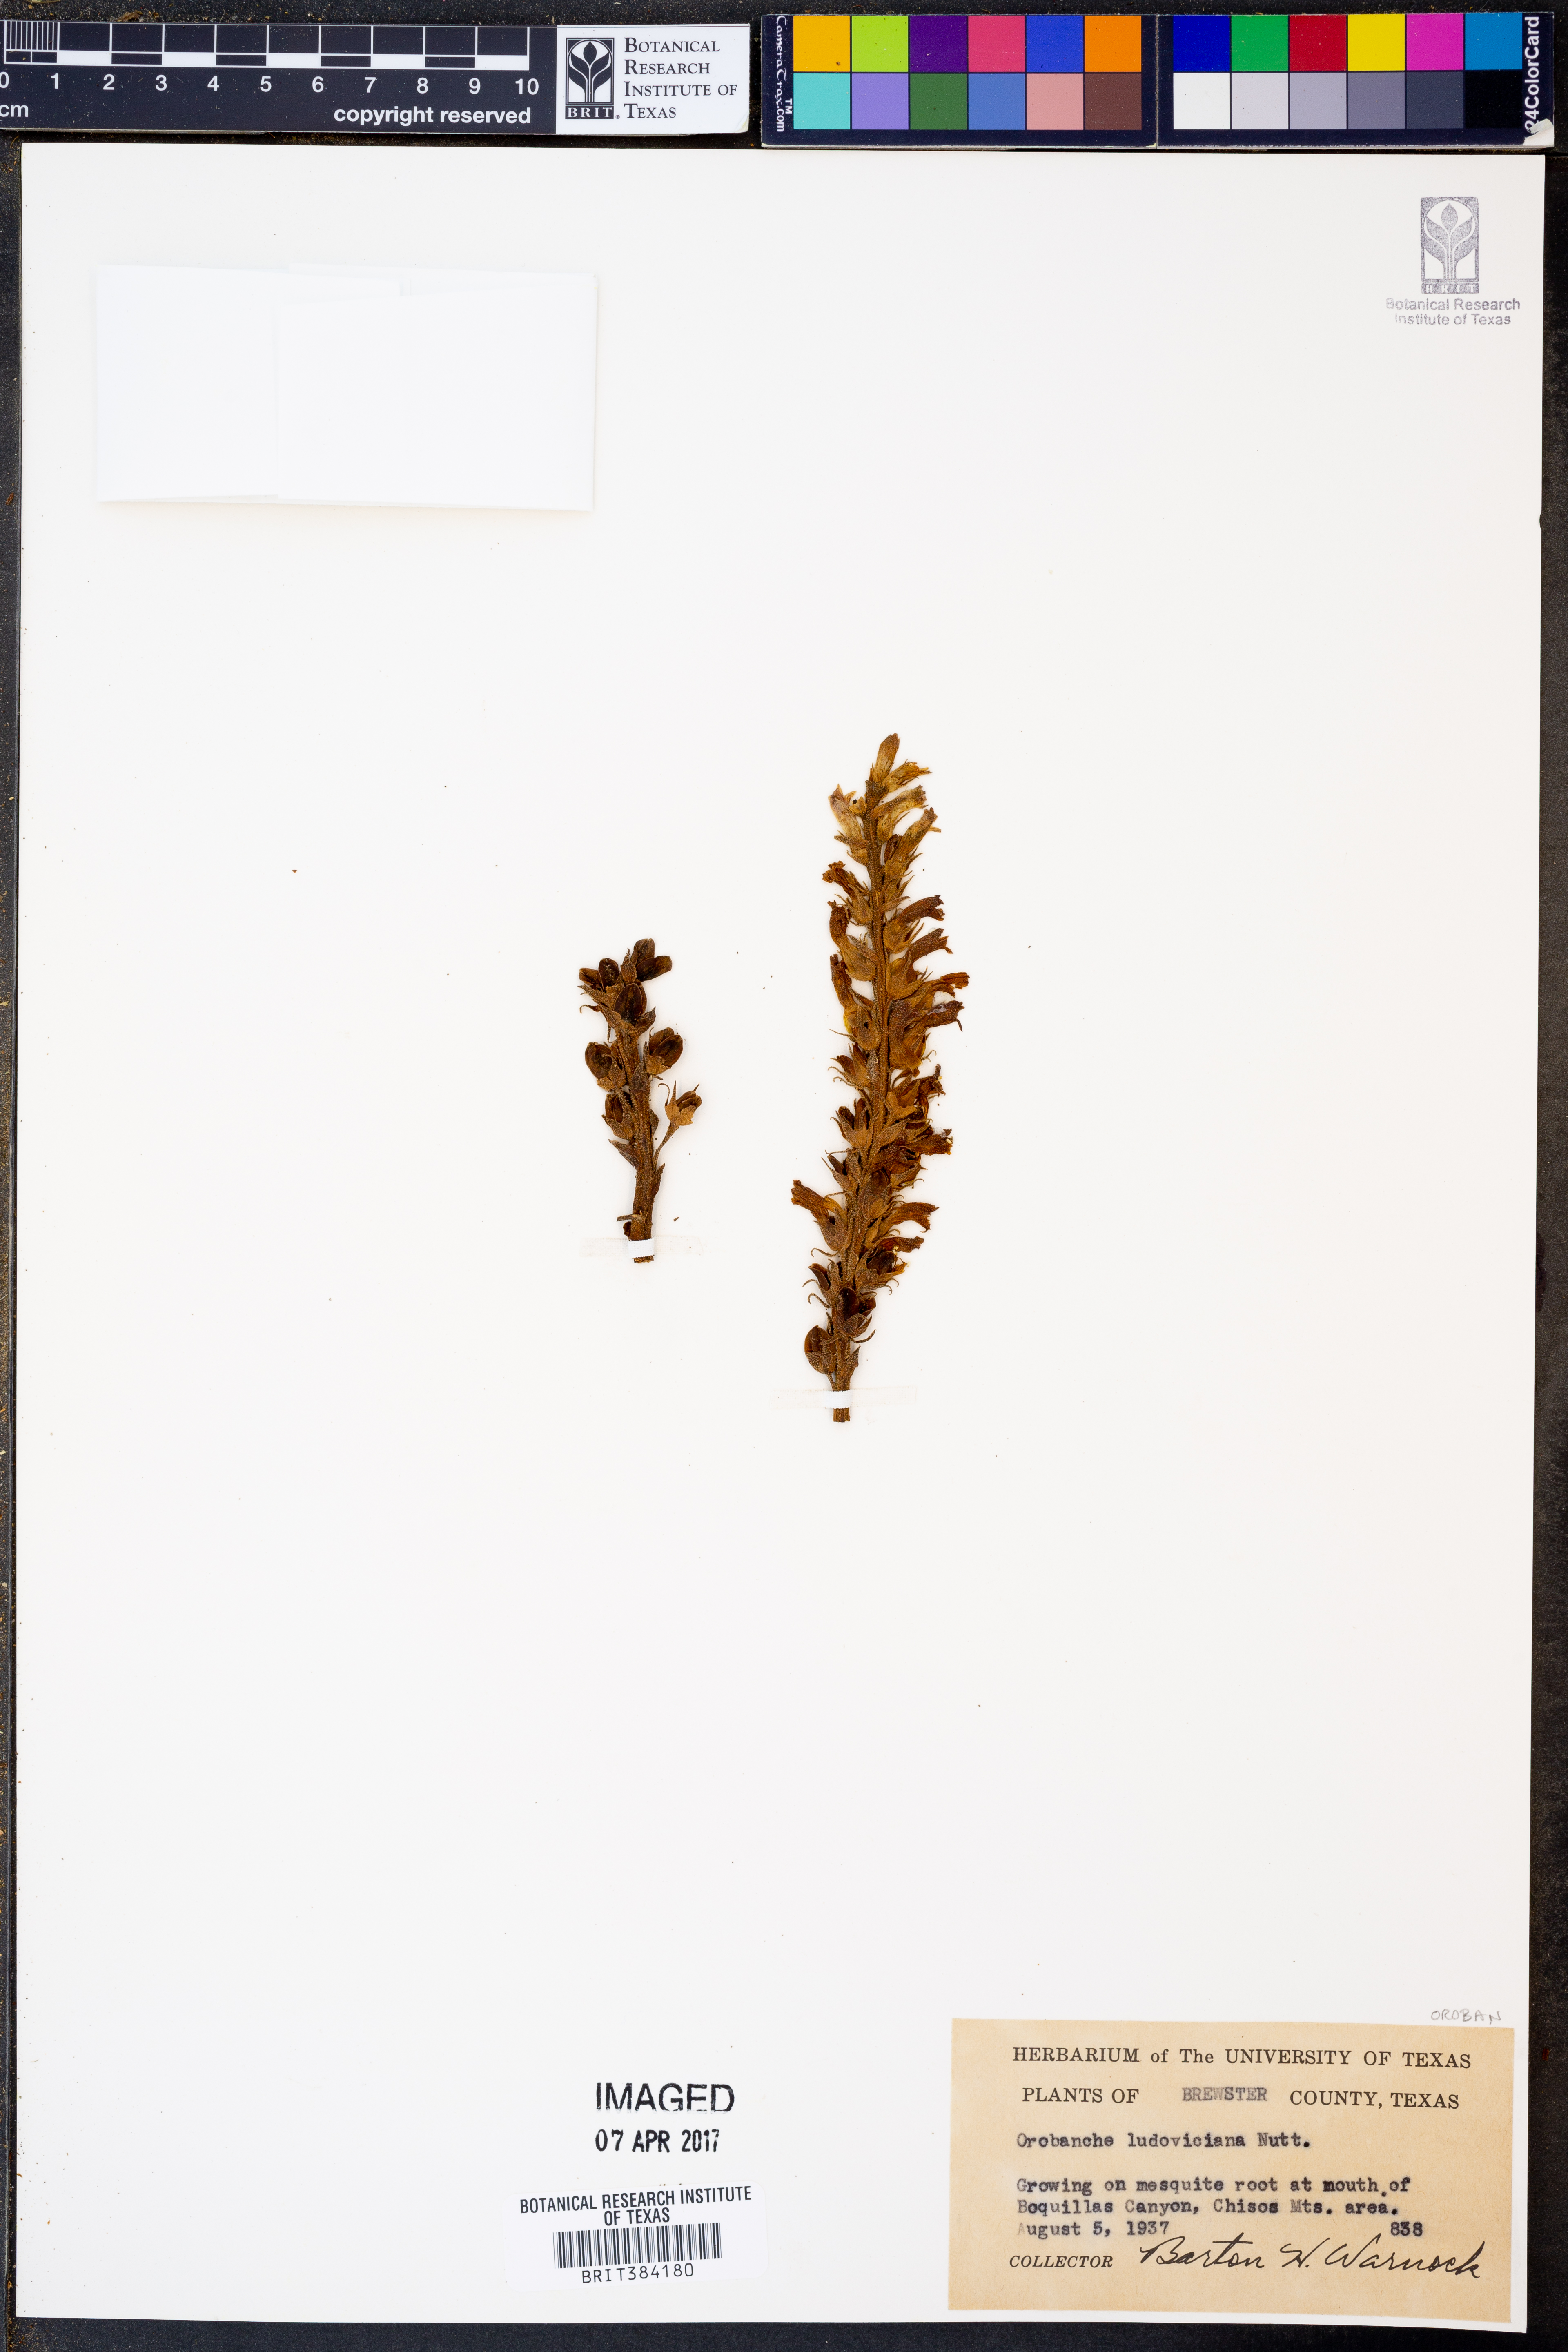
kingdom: Plantae
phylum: Tracheophyta
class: Magnoliopsida
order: Lamiales
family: Orobanchaceae
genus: Aphyllon
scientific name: Aphyllon ludovicianum
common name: Louisiana broomrape
